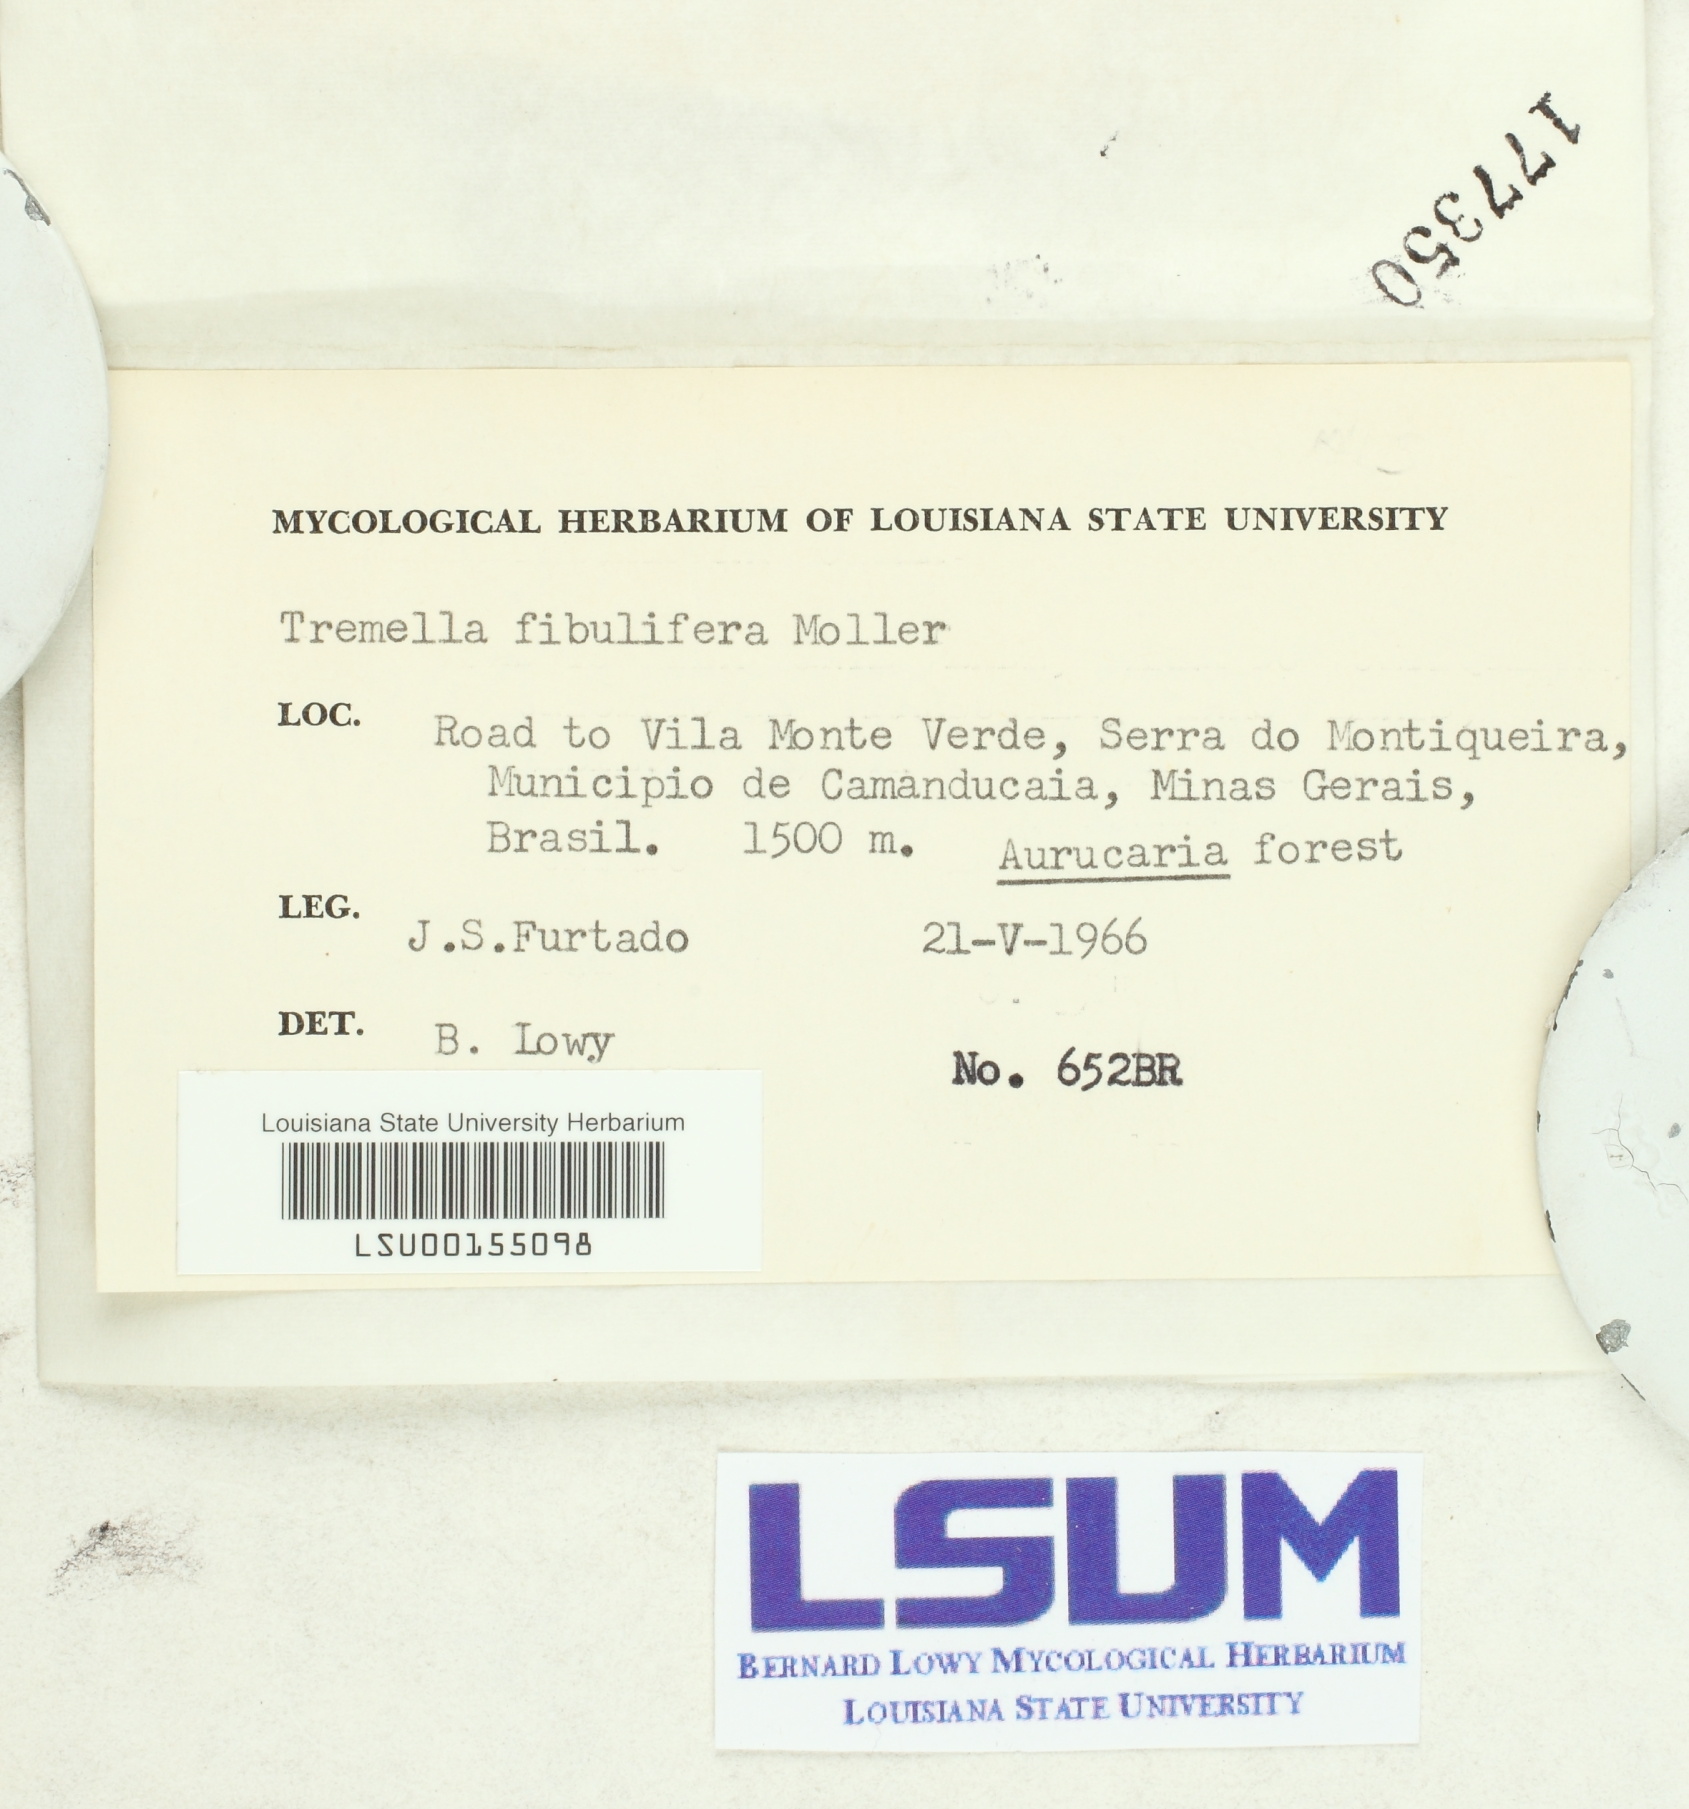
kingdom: Fungi
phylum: Basidiomycota
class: Tremellomycetes
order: Tremellales
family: Tremellaceae
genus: Tremella
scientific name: Tremella fibulifera
